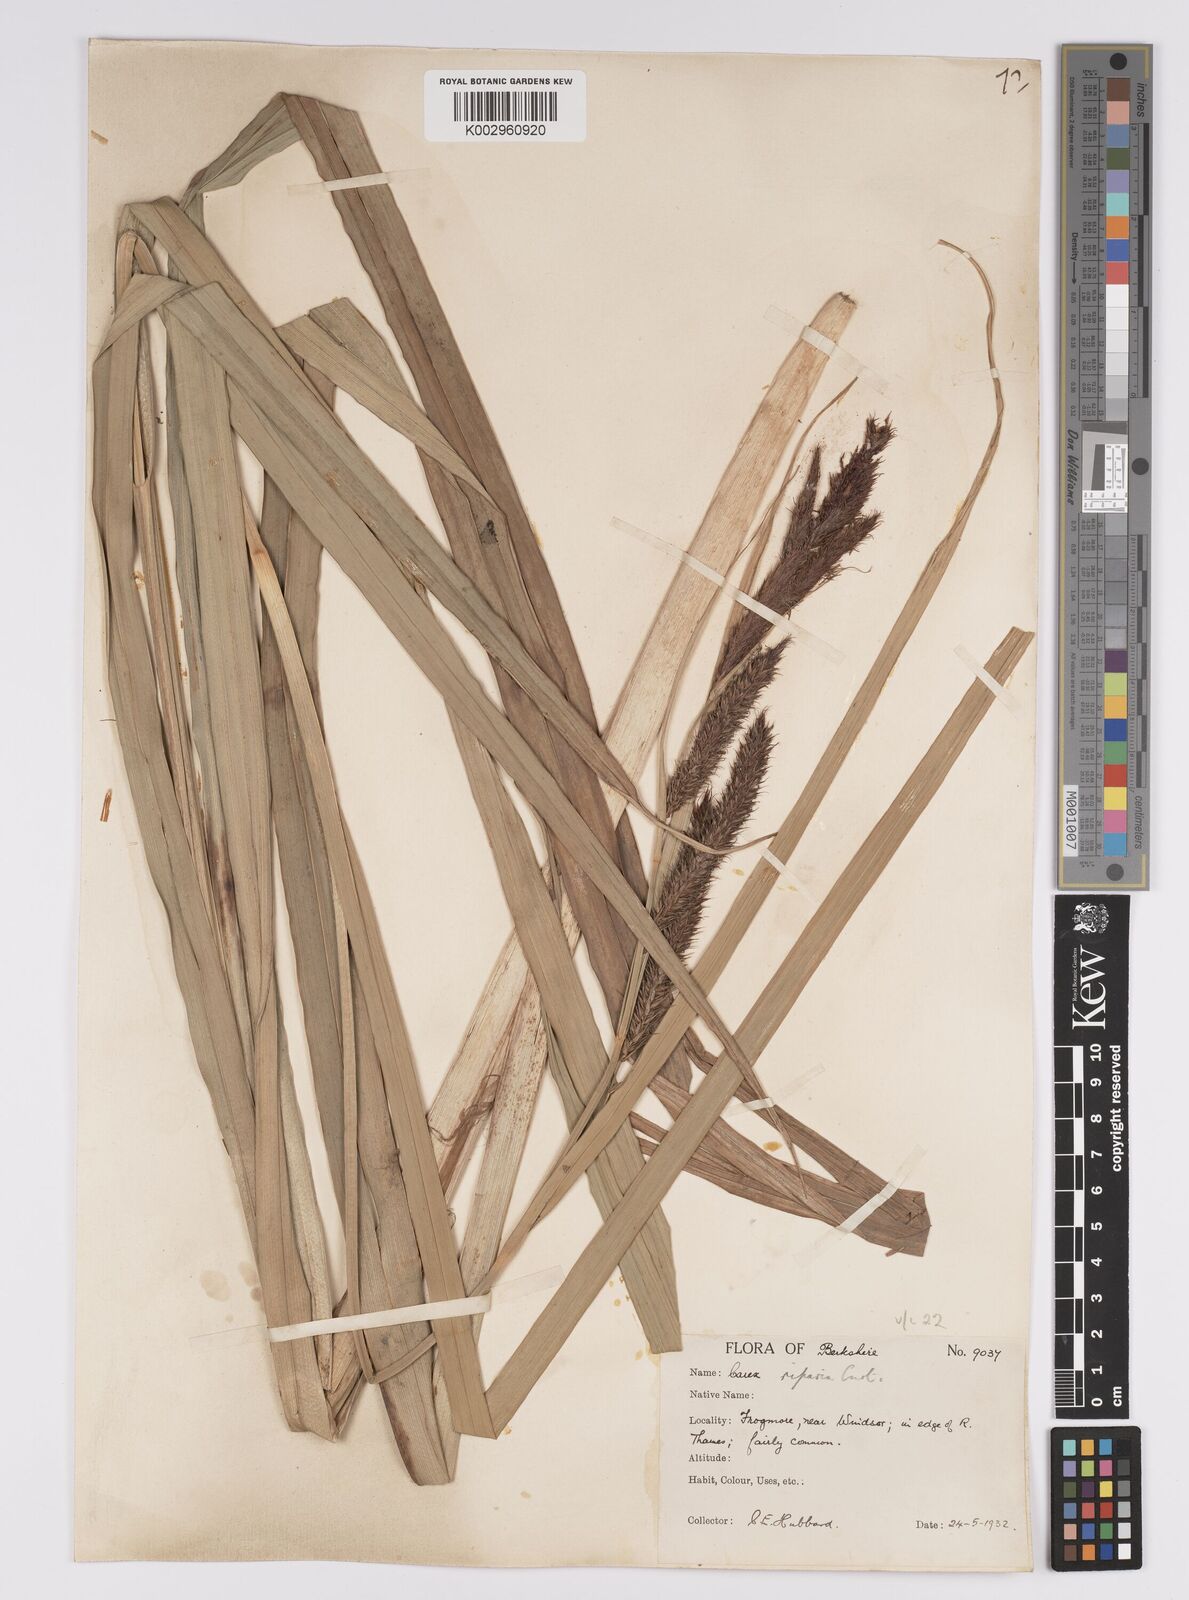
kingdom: Plantae
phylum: Tracheophyta
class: Liliopsida
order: Poales
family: Cyperaceae
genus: Carex
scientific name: Carex riparia
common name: Greater pond-sedge
